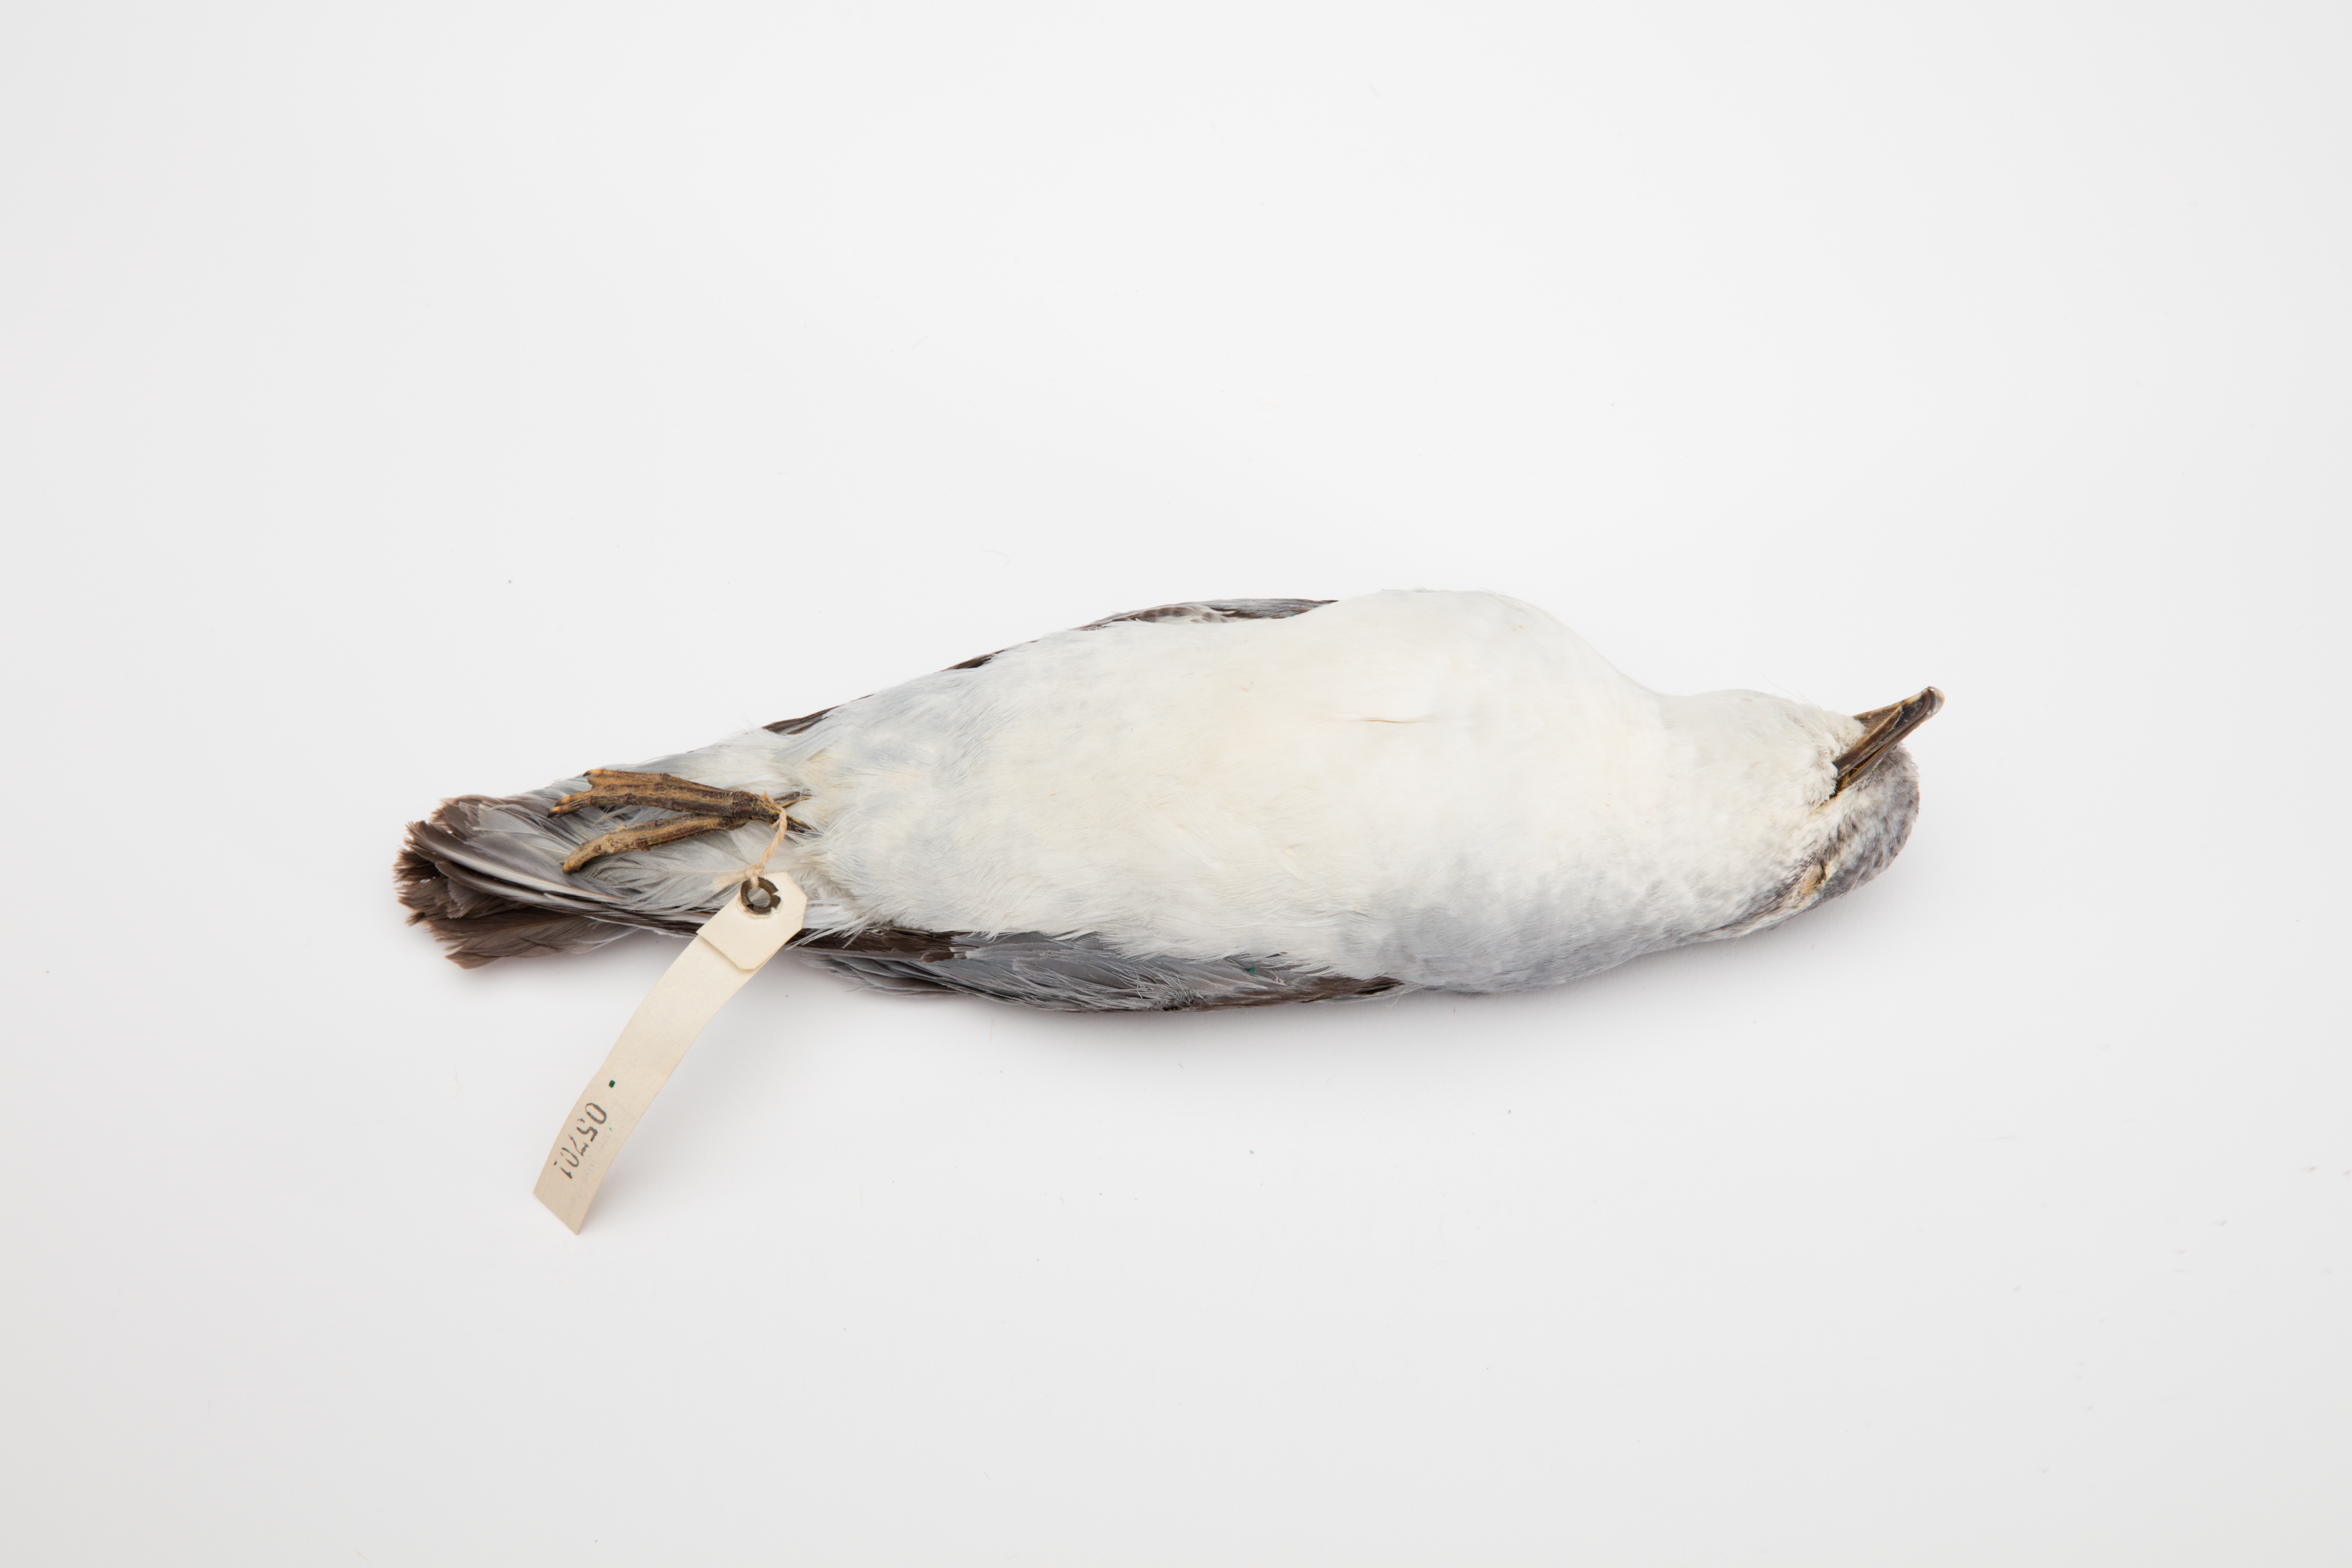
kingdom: Animalia
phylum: Chordata
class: Aves
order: Procellariiformes
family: Procellariidae
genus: Pachyptila
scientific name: Pachyptila turtur
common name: Fairy prion
